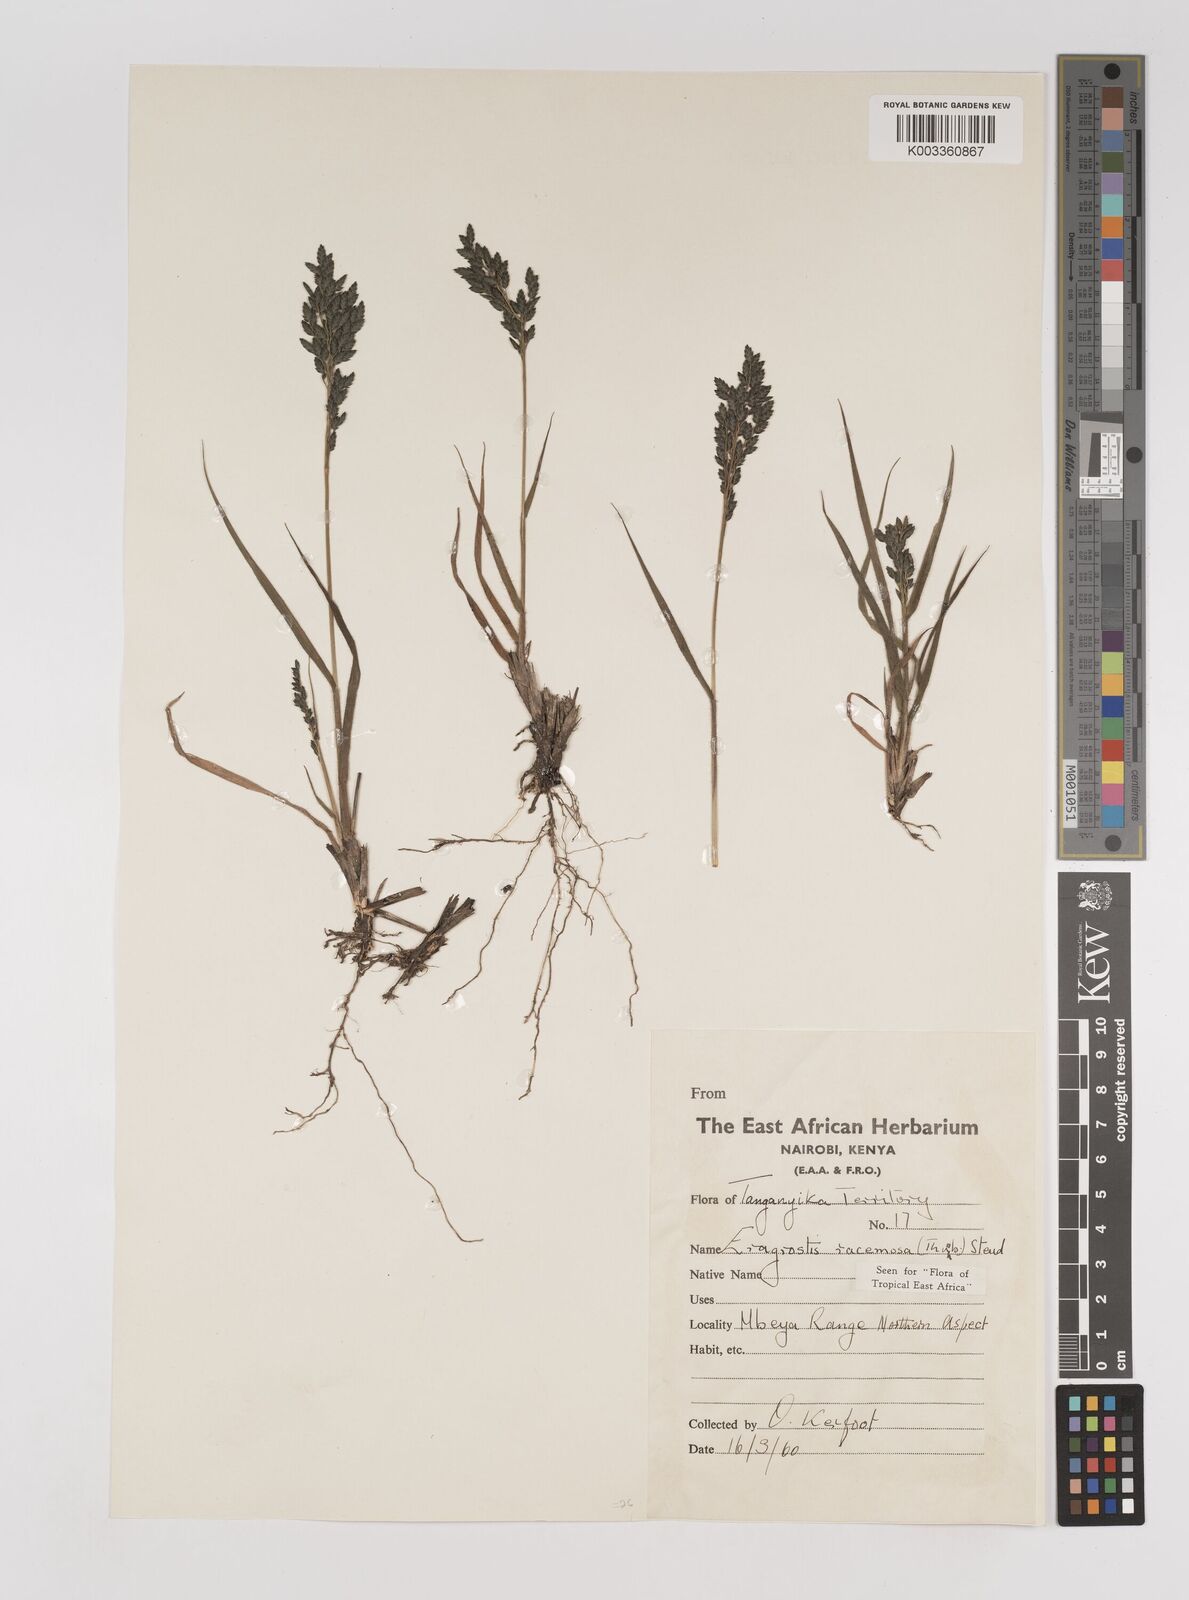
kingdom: Plantae
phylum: Tracheophyta
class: Liliopsida
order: Poales
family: Poaceae
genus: Eragrostis
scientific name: Eragrostis racemosa
